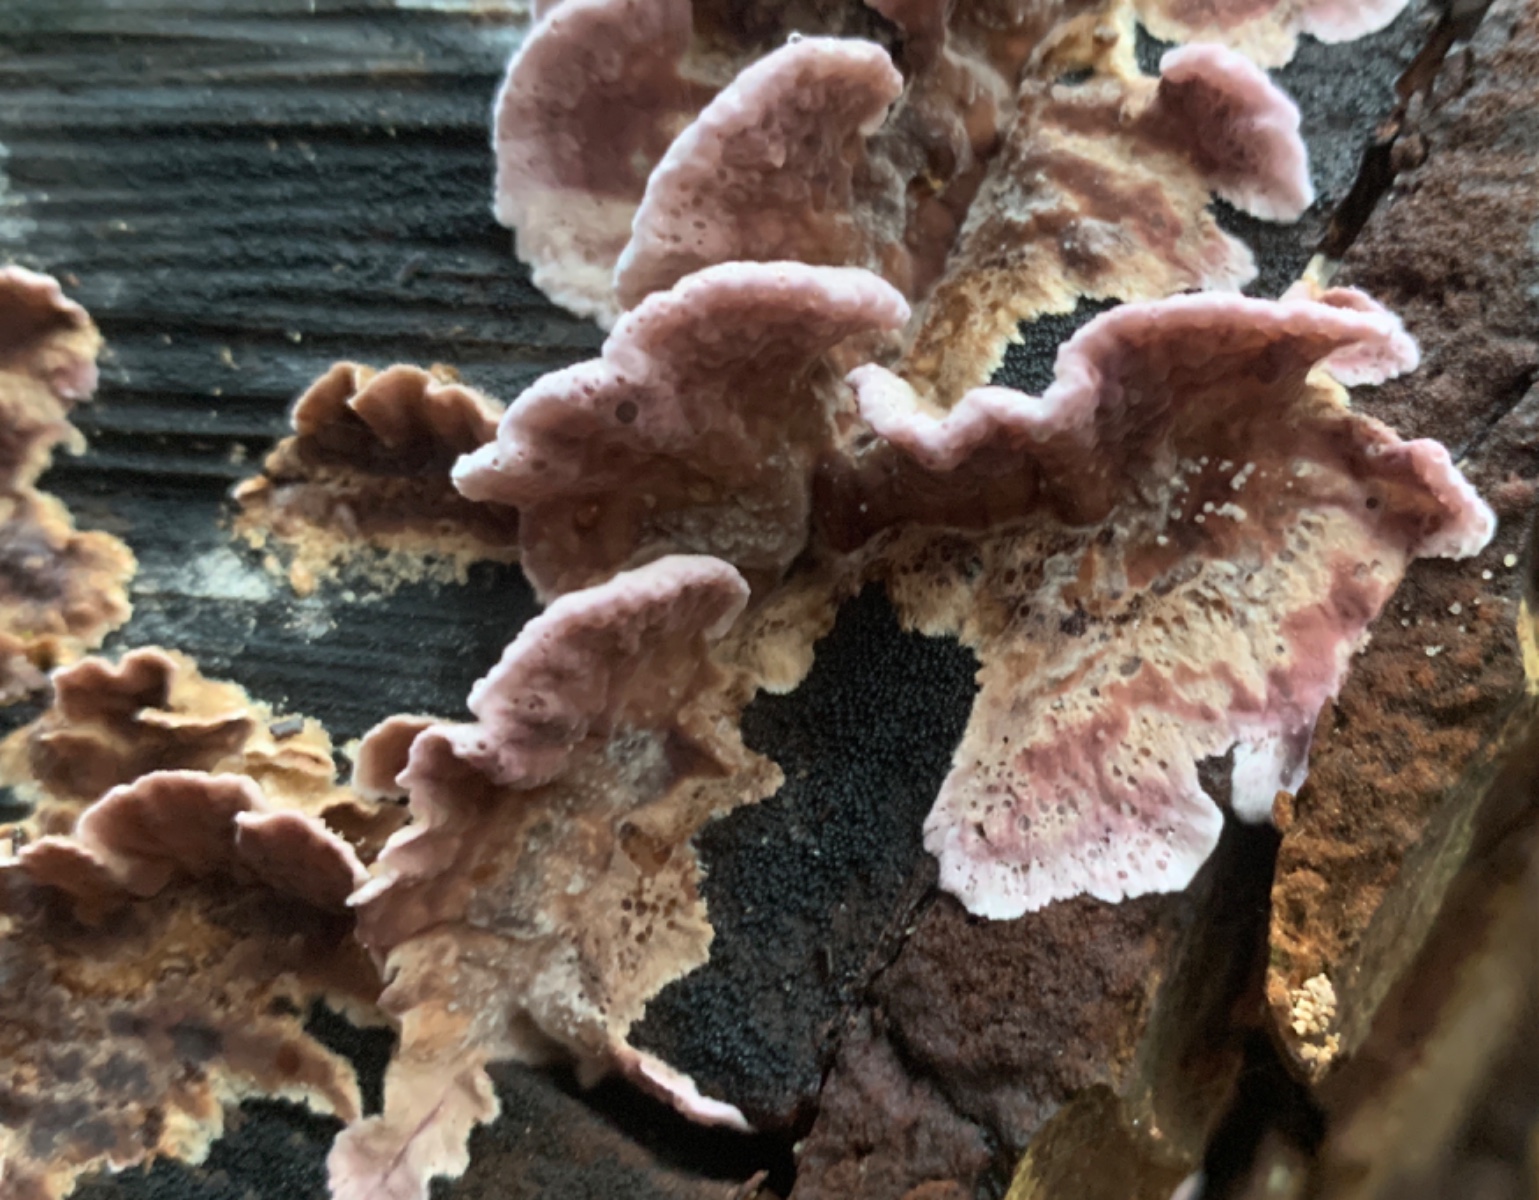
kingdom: Fungi
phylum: Basidiomycota
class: Agaricomycetes
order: Agaricales
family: Cyphellaceae
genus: Chondrostereum
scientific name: Chondrostereum purpureum
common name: purpurlædersvamp
